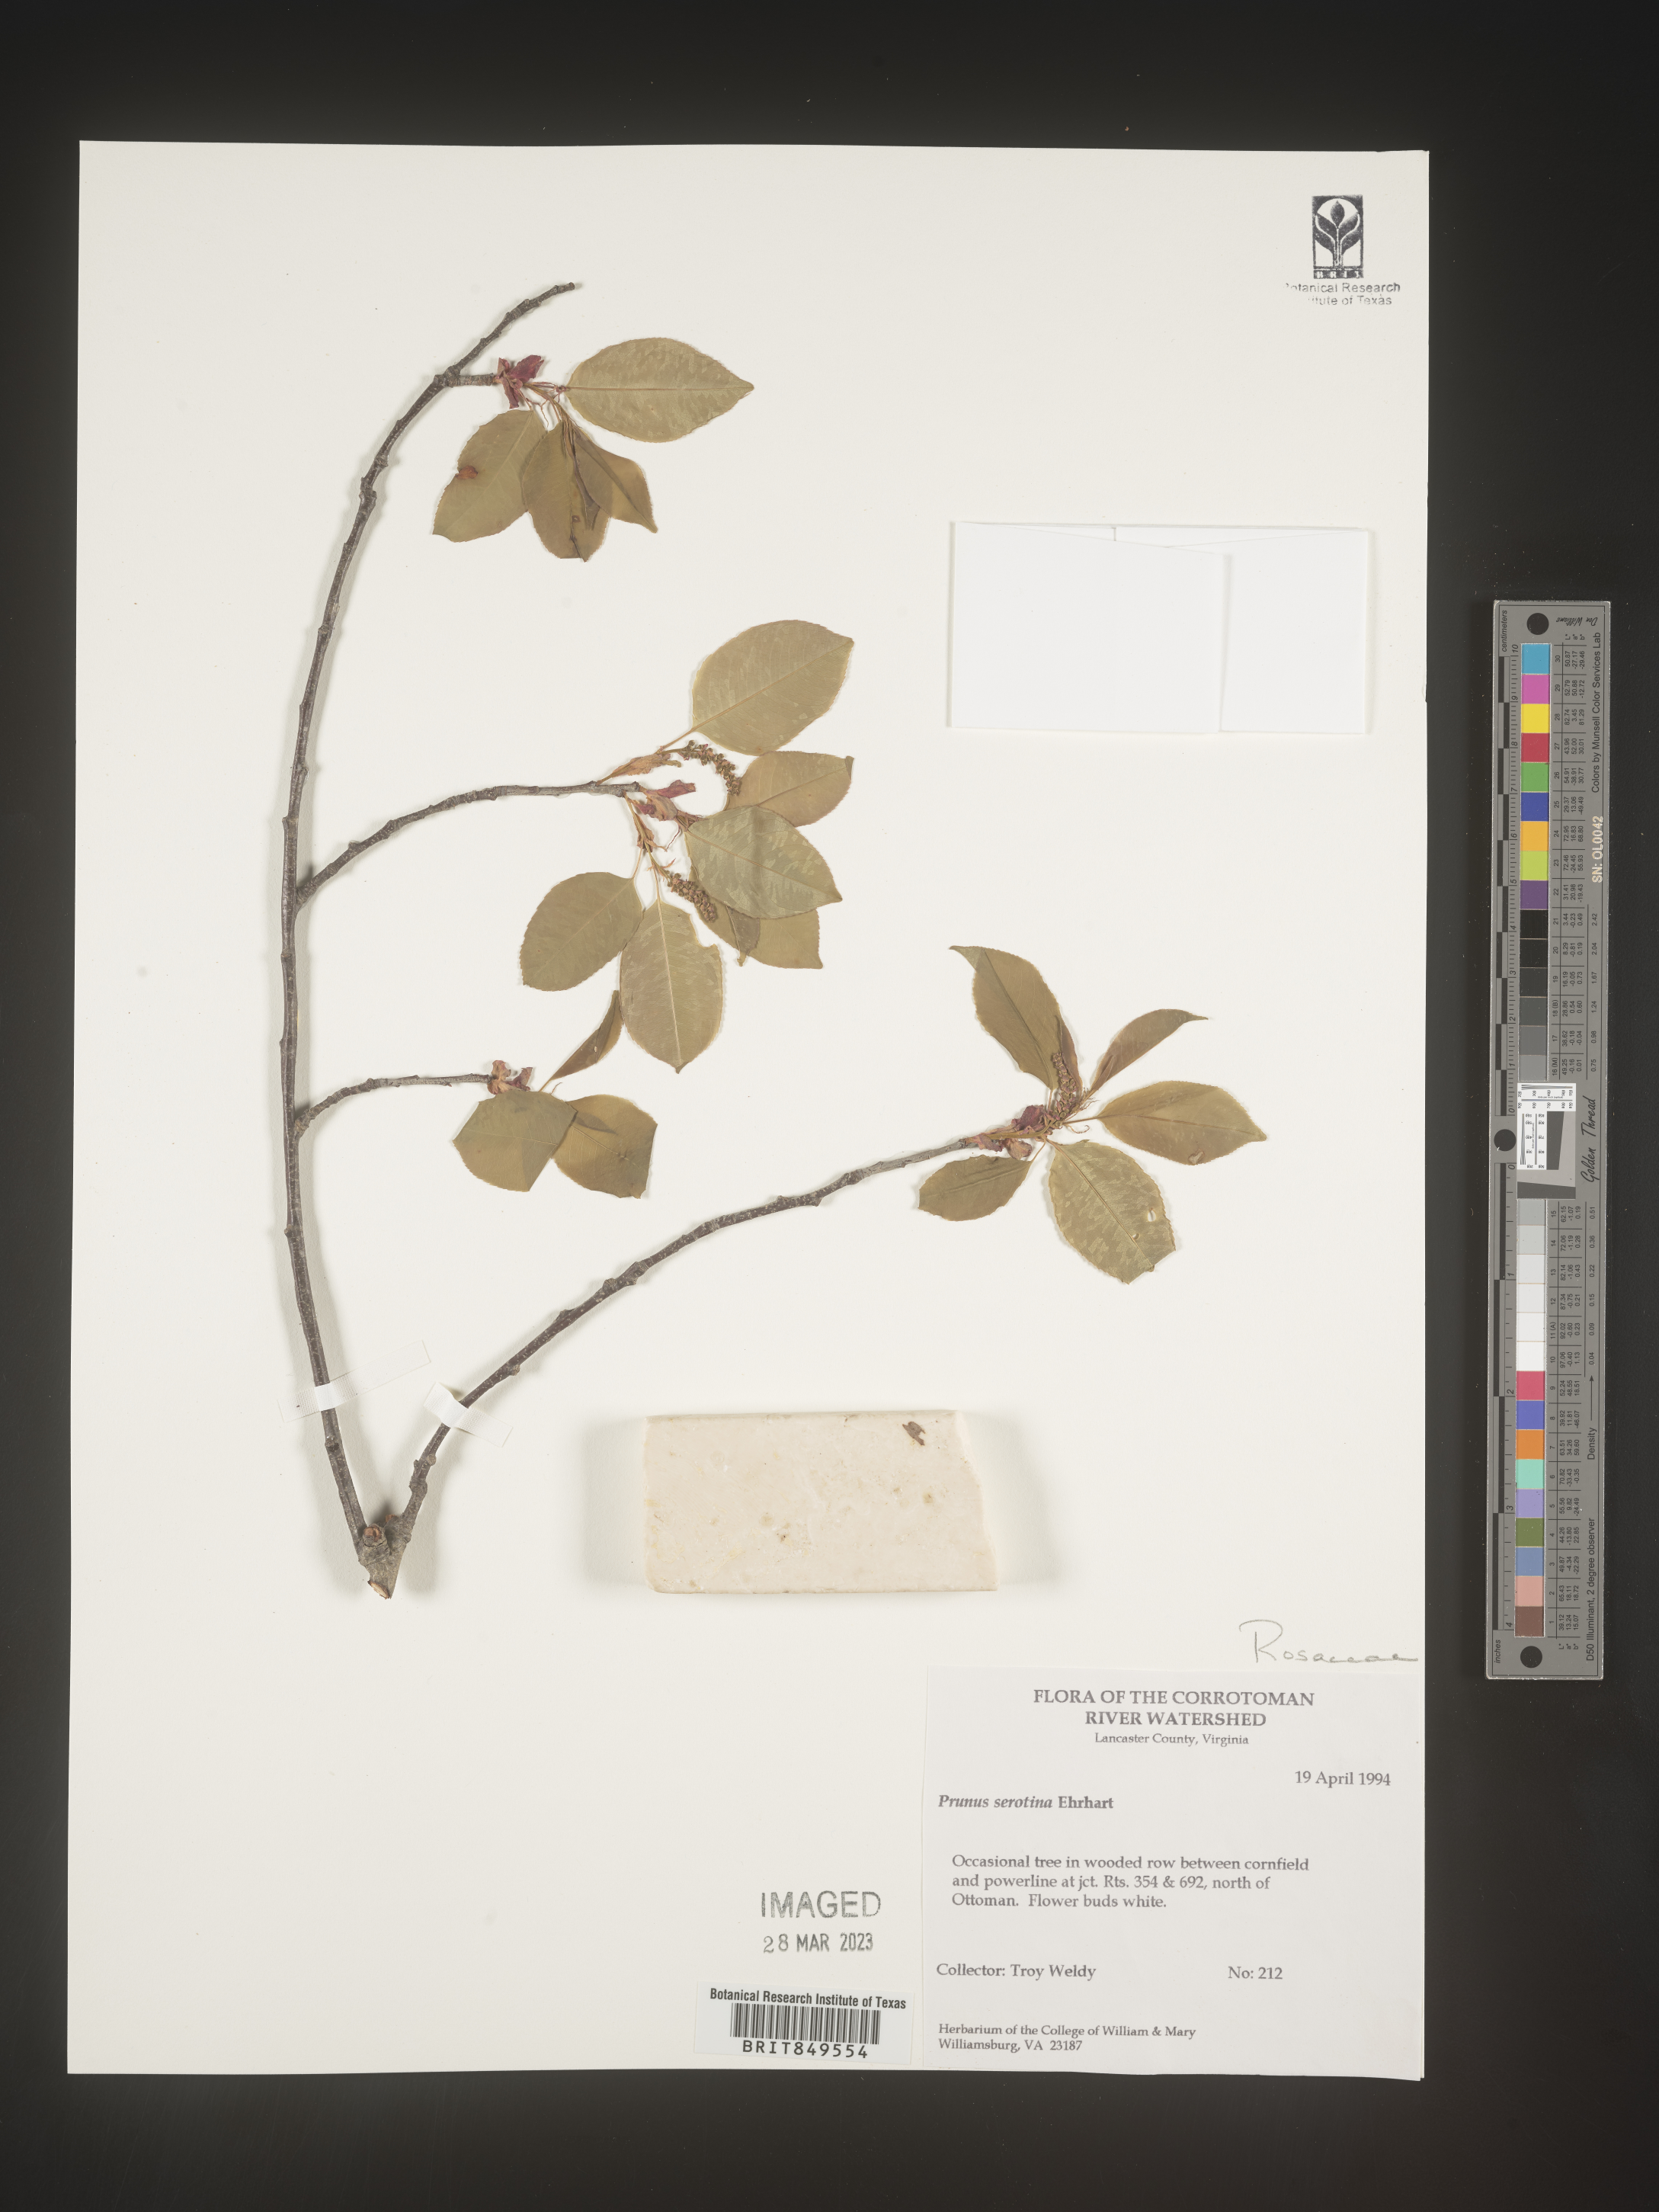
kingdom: Plantae
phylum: Tracheophyta
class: Magnoliopsida
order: Rosales
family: Rosaceae
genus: Prunus
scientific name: Prunus serotina
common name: Black cherry
